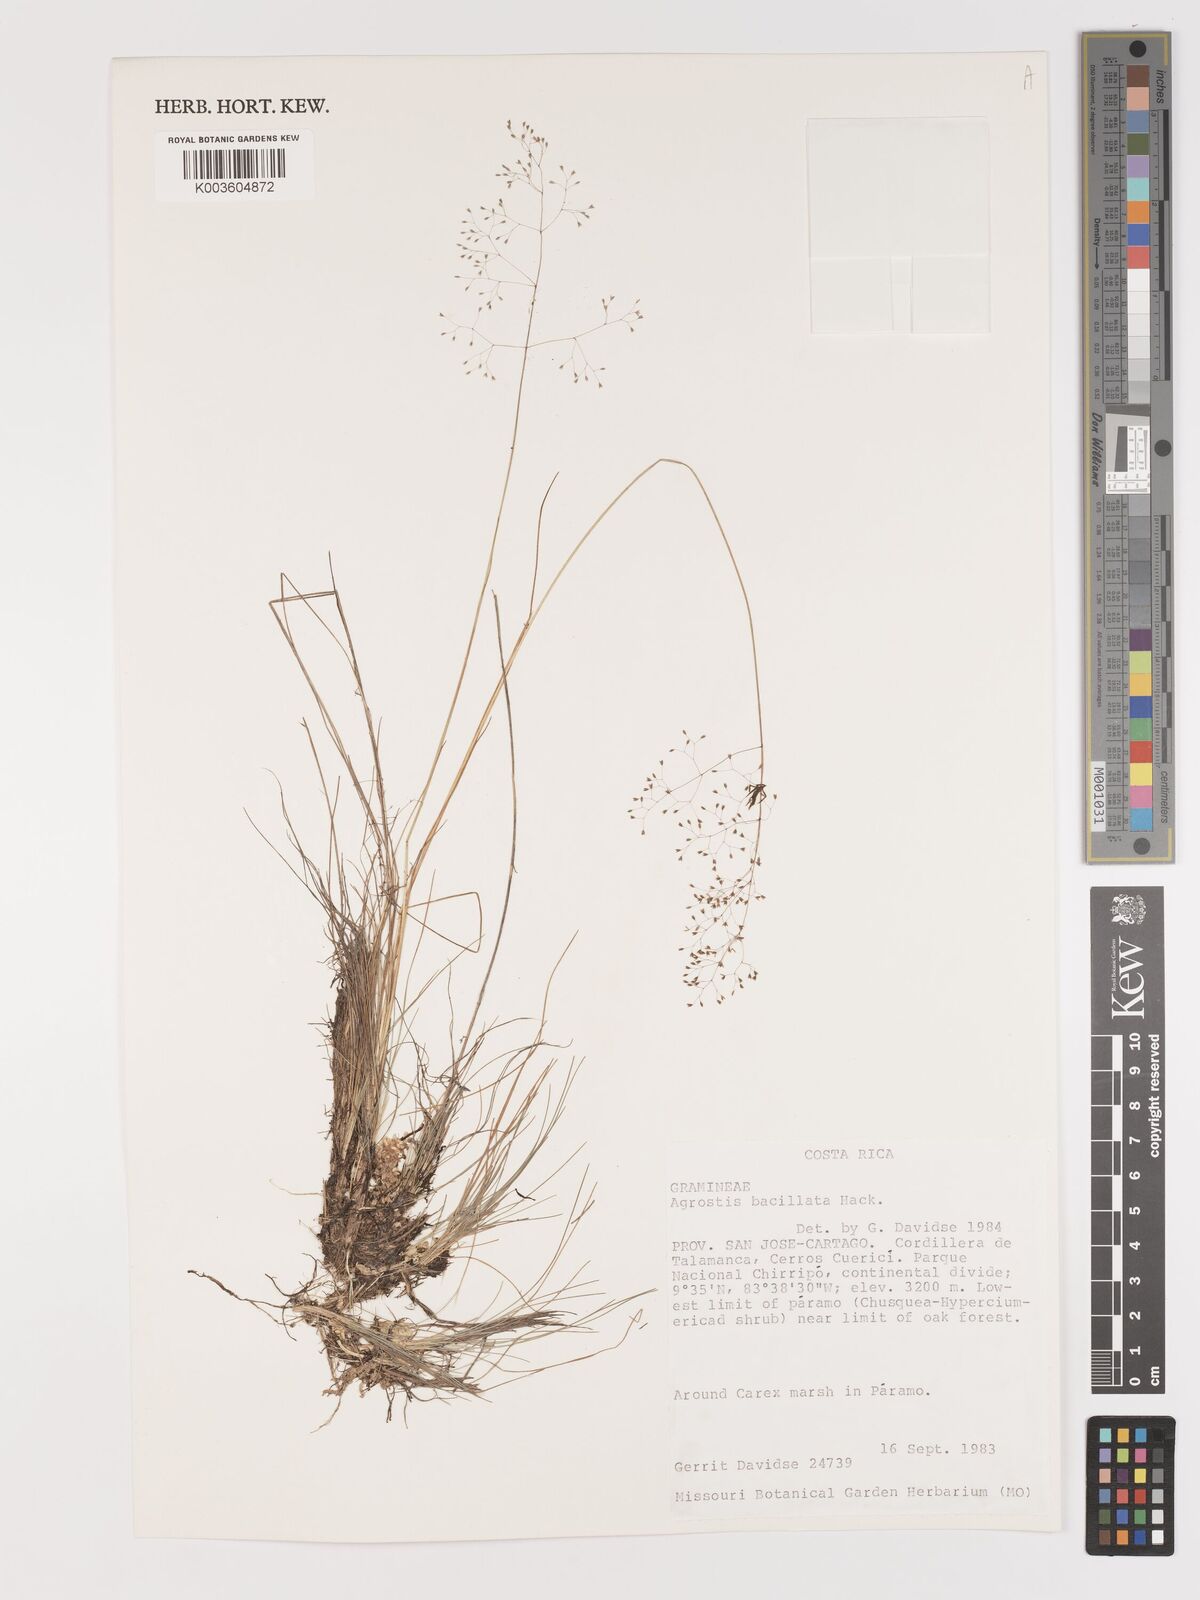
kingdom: Plantae
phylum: Tracheophyta
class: Liliopsida
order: Poales
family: Poaceae
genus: Podagrostis
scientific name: Podagrostis bacillata
